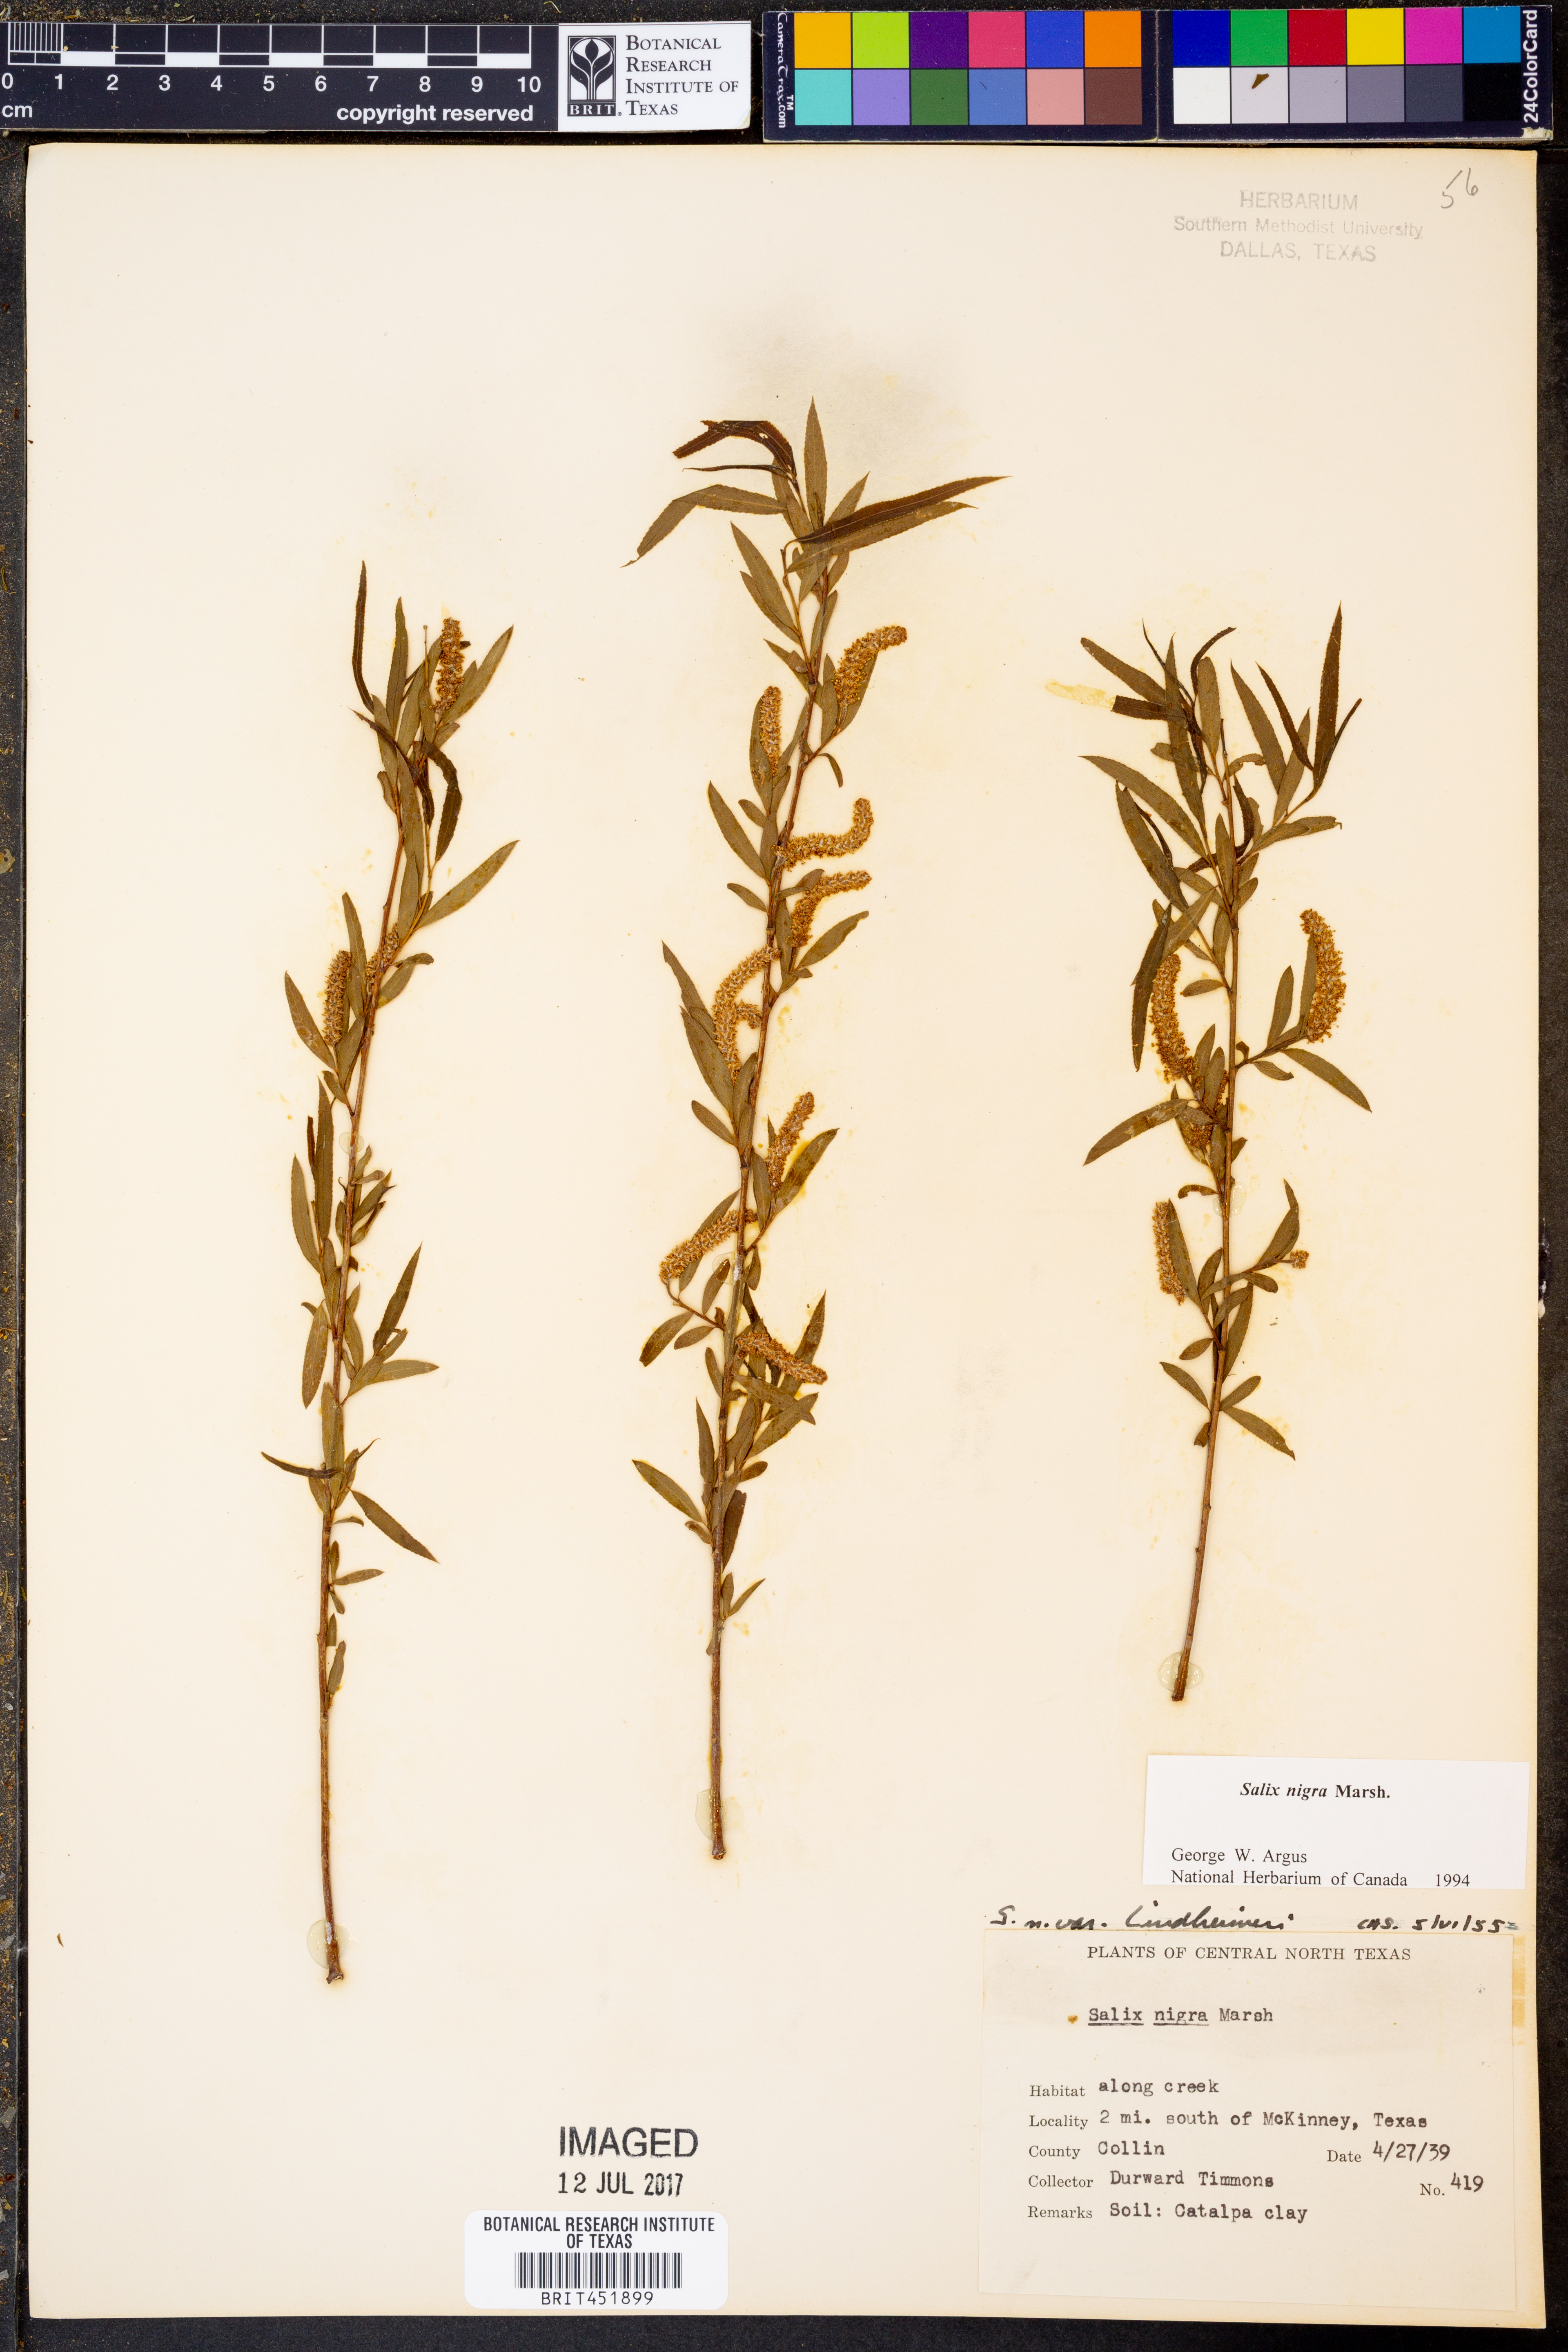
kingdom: Plantae
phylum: Tracheophyta
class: Magnoliopsida
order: Malpighiales
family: Salicaceae
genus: Salix
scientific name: Salix nigra
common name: Black willow
